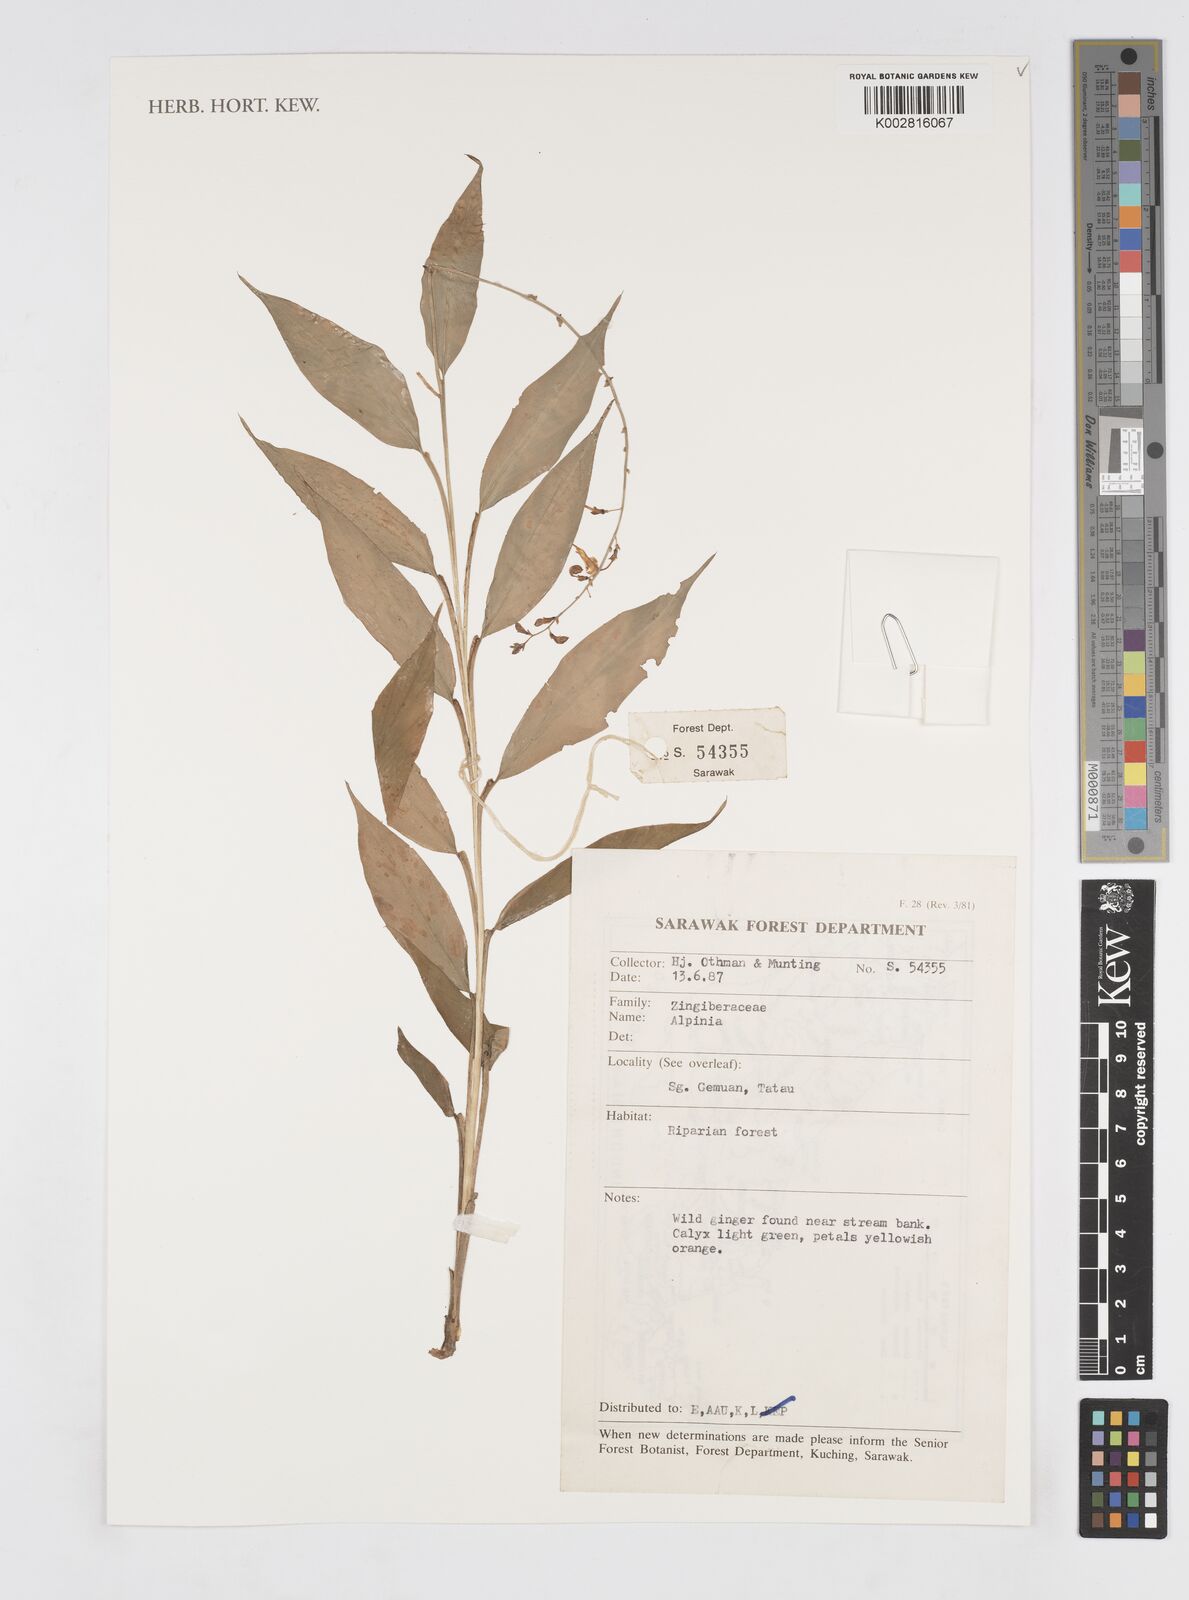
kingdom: Plantae
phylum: Tracheophyta
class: Liliopsida
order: Zingiberales
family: Zingiberaceae
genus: Alpinia
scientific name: Alpinia
